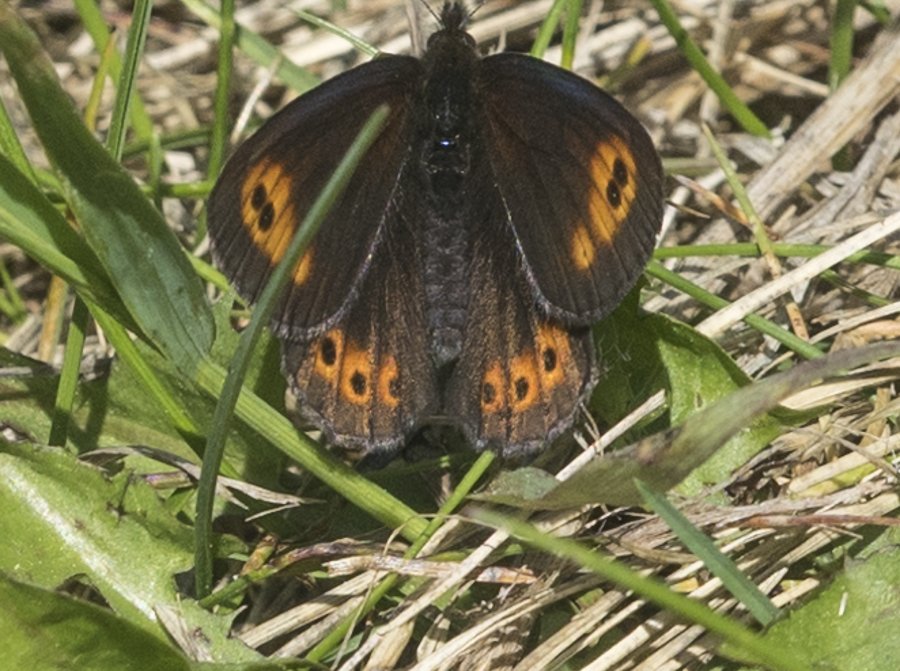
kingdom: Animalia
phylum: Arthropoda
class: Insecta
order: Lepidoptera
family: Nymphalidae
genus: Erebia
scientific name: Erebia epipsodea
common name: Common Alpine
